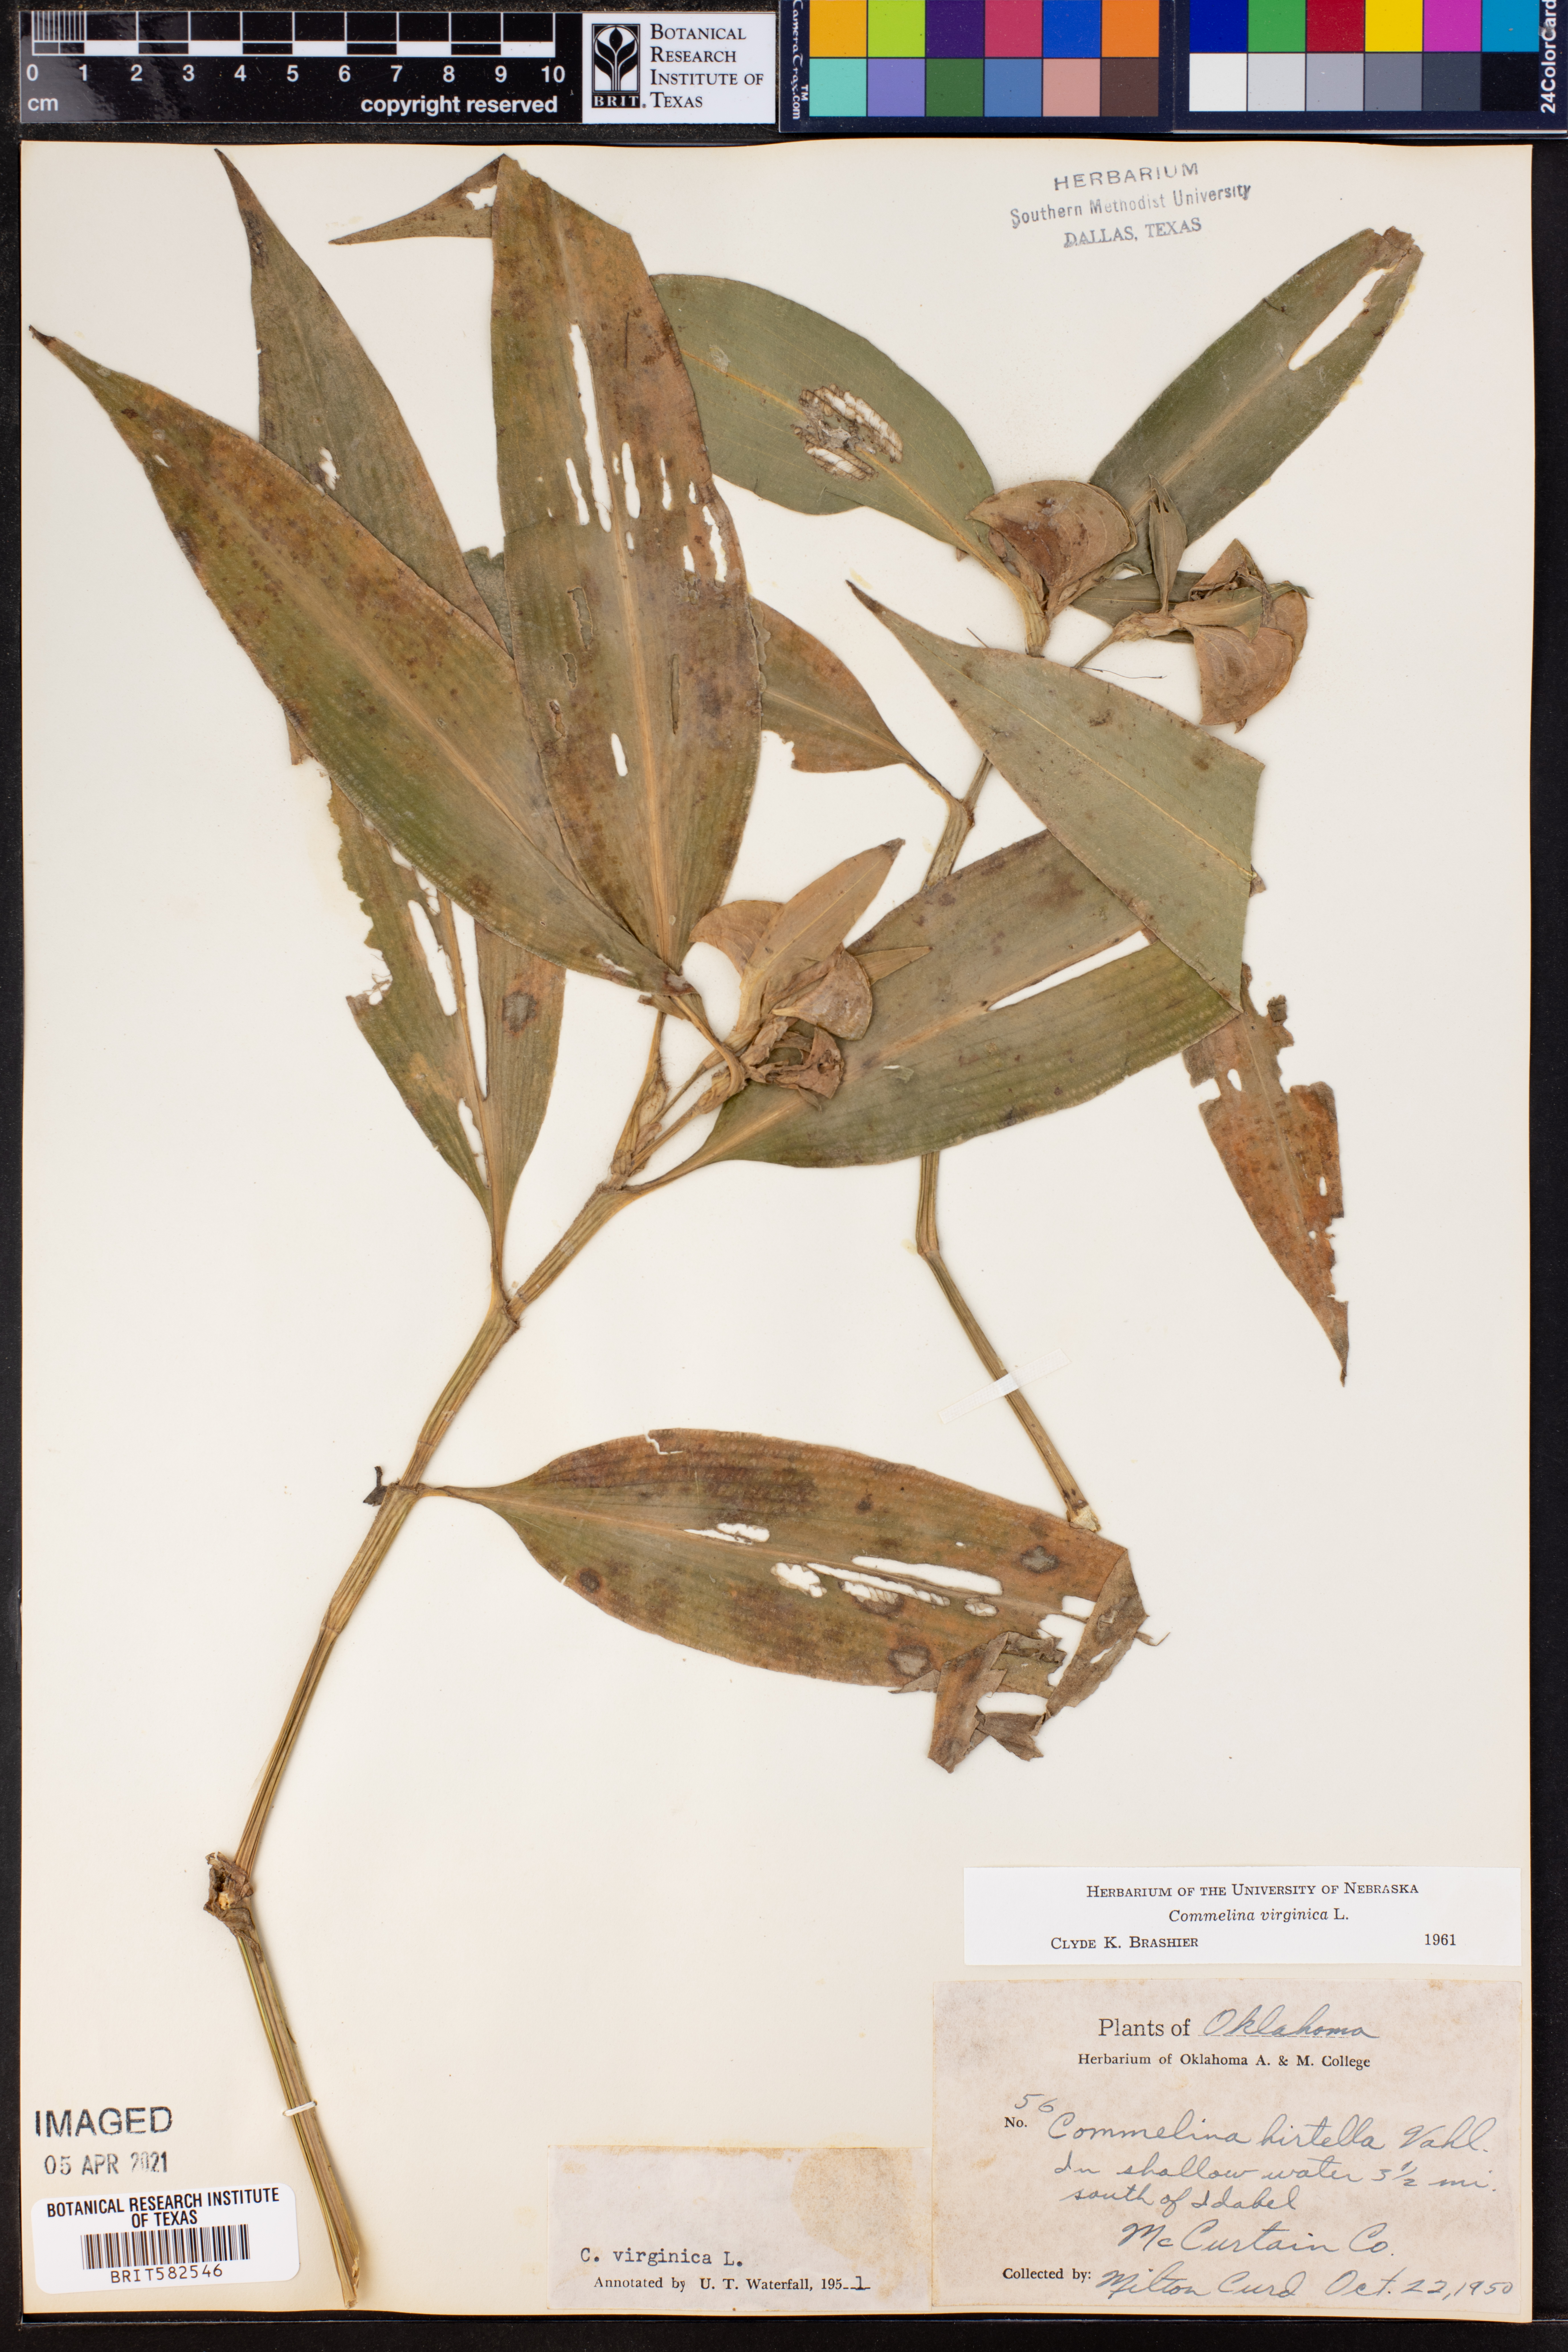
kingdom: Plantae
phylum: Tracheophyta
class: Liliopsida
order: Commelinales
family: Commelinaceae
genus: Commelina
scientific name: Commelina virginica
